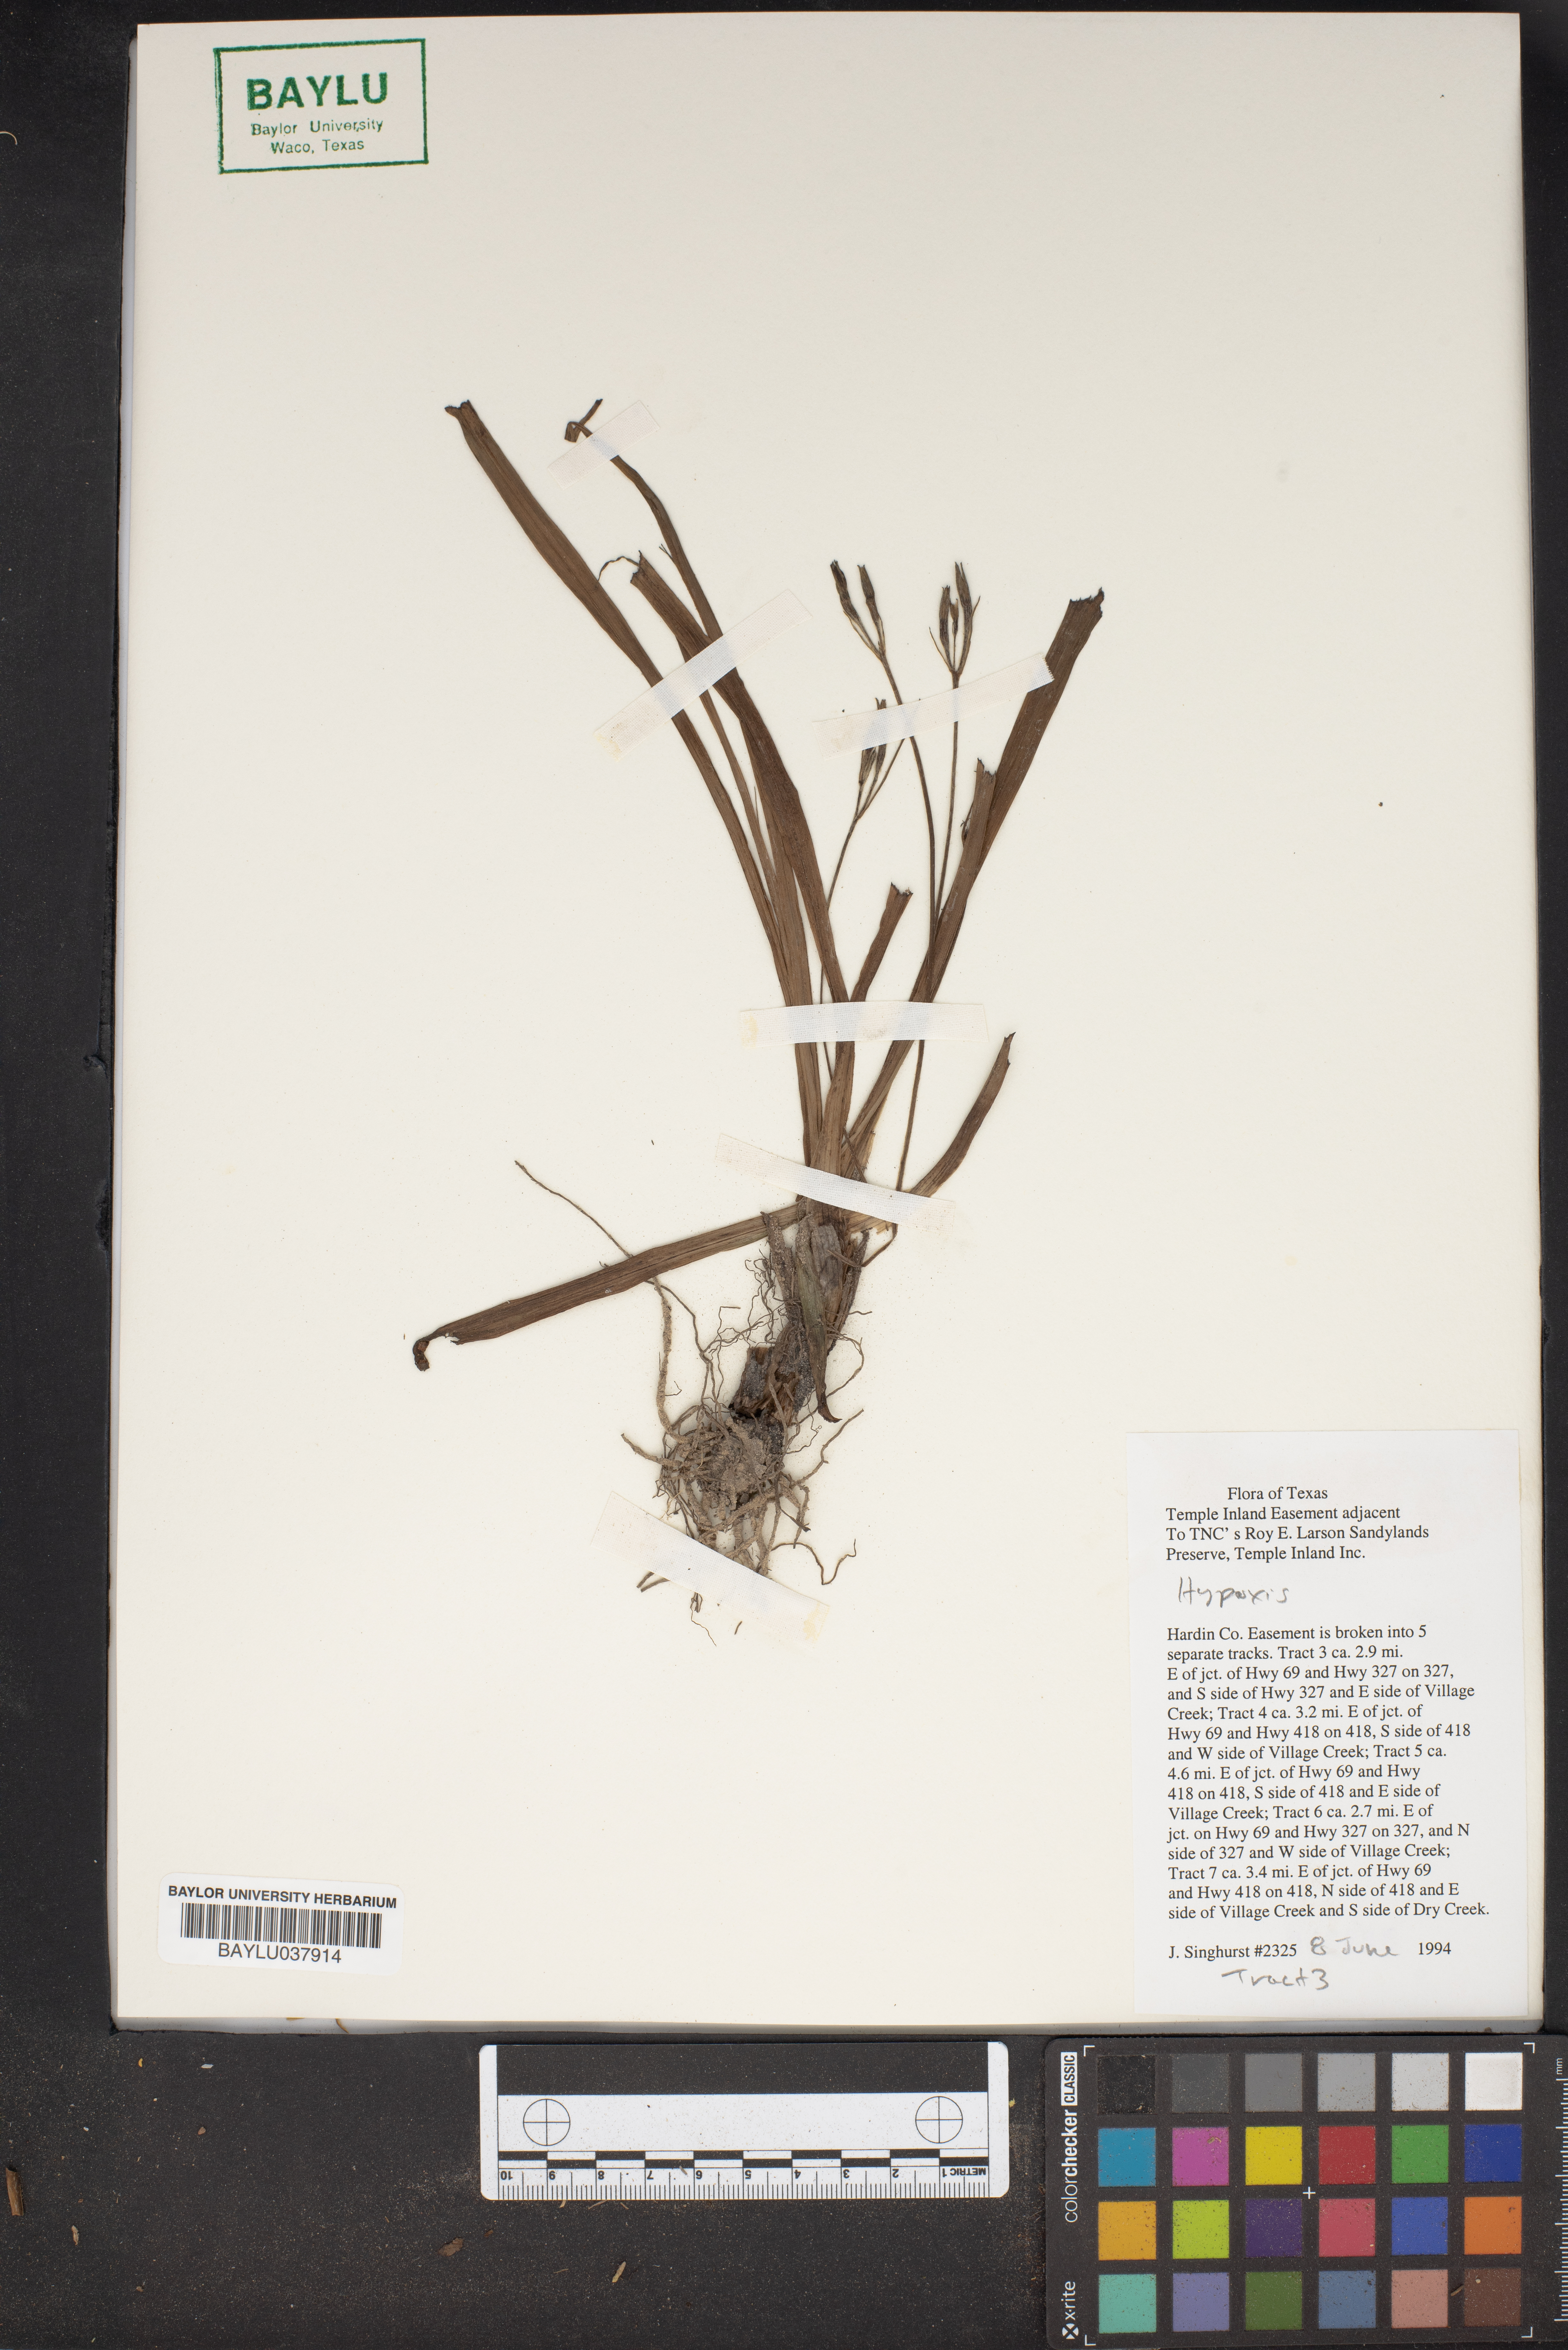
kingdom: Plantae
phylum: Tracheophyta
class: Liliopsida
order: Asparagales
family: Hypoxidaceae
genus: Hypoxis
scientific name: Hypoxis
